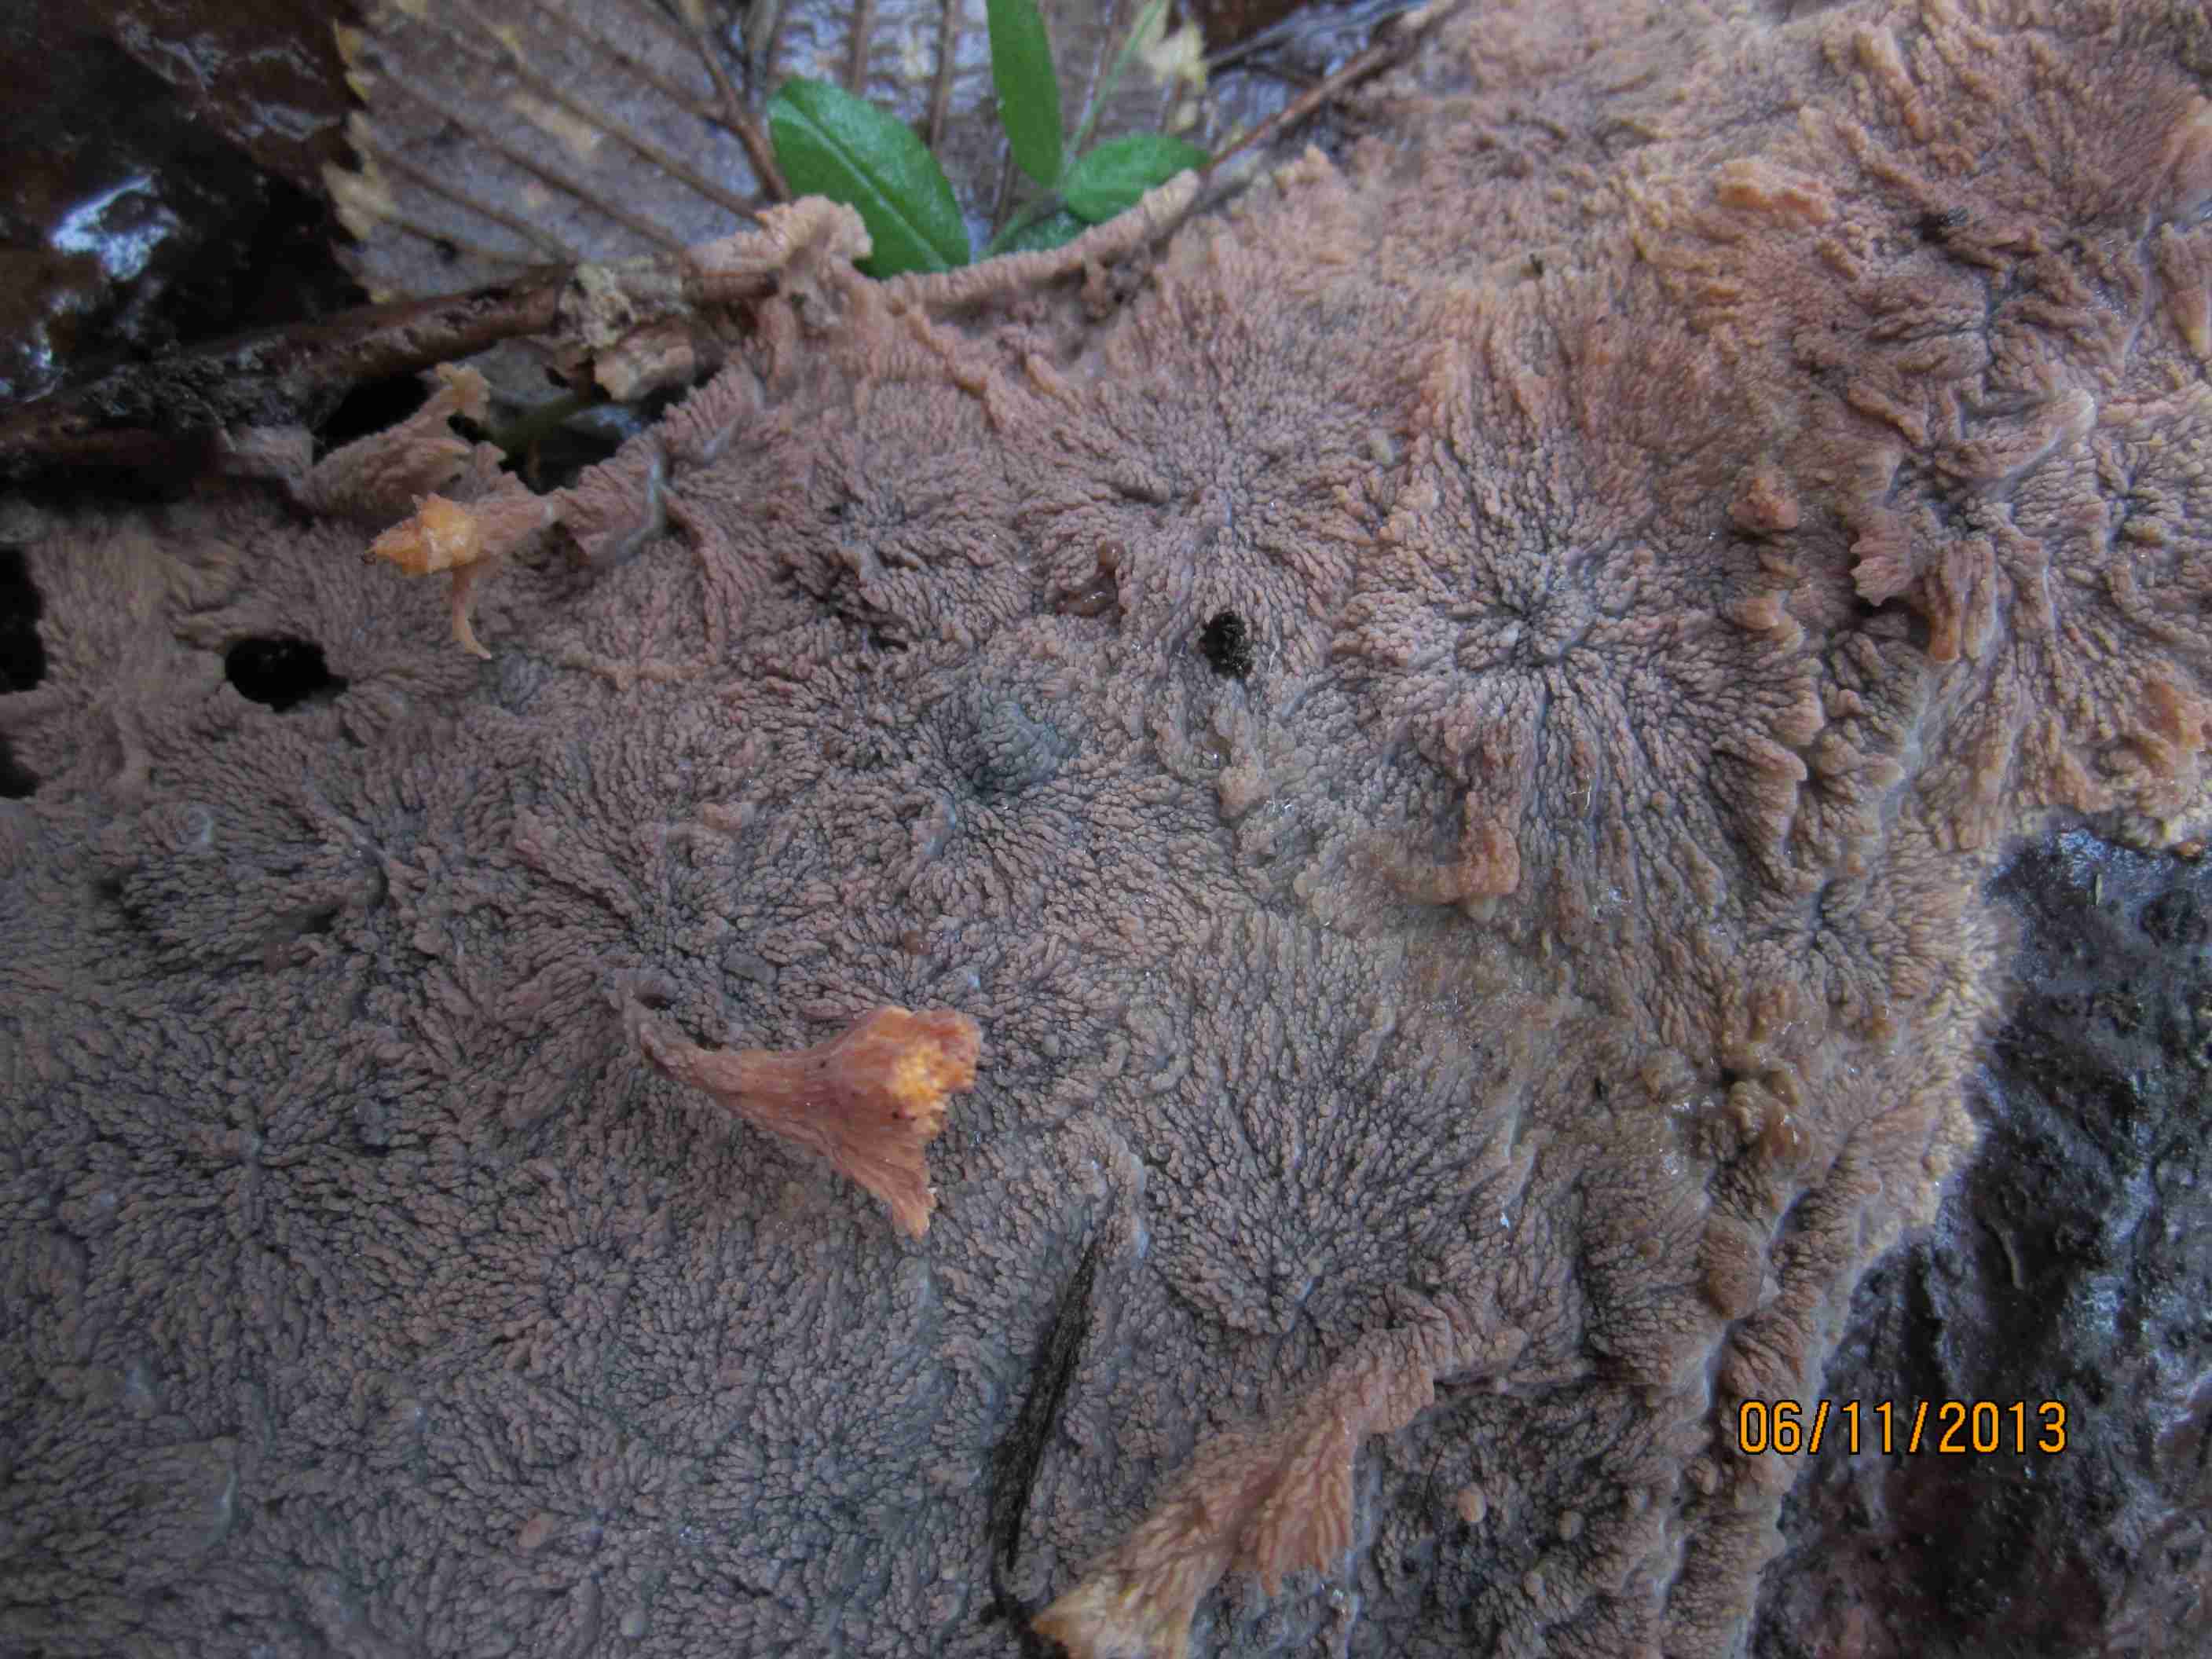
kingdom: Fungi
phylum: Basidiomycota
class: Agaricomycetes
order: Polyporales
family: Meruliaceae
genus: Phlebia
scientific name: Phlebia radiata
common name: stråle-åresvamp
